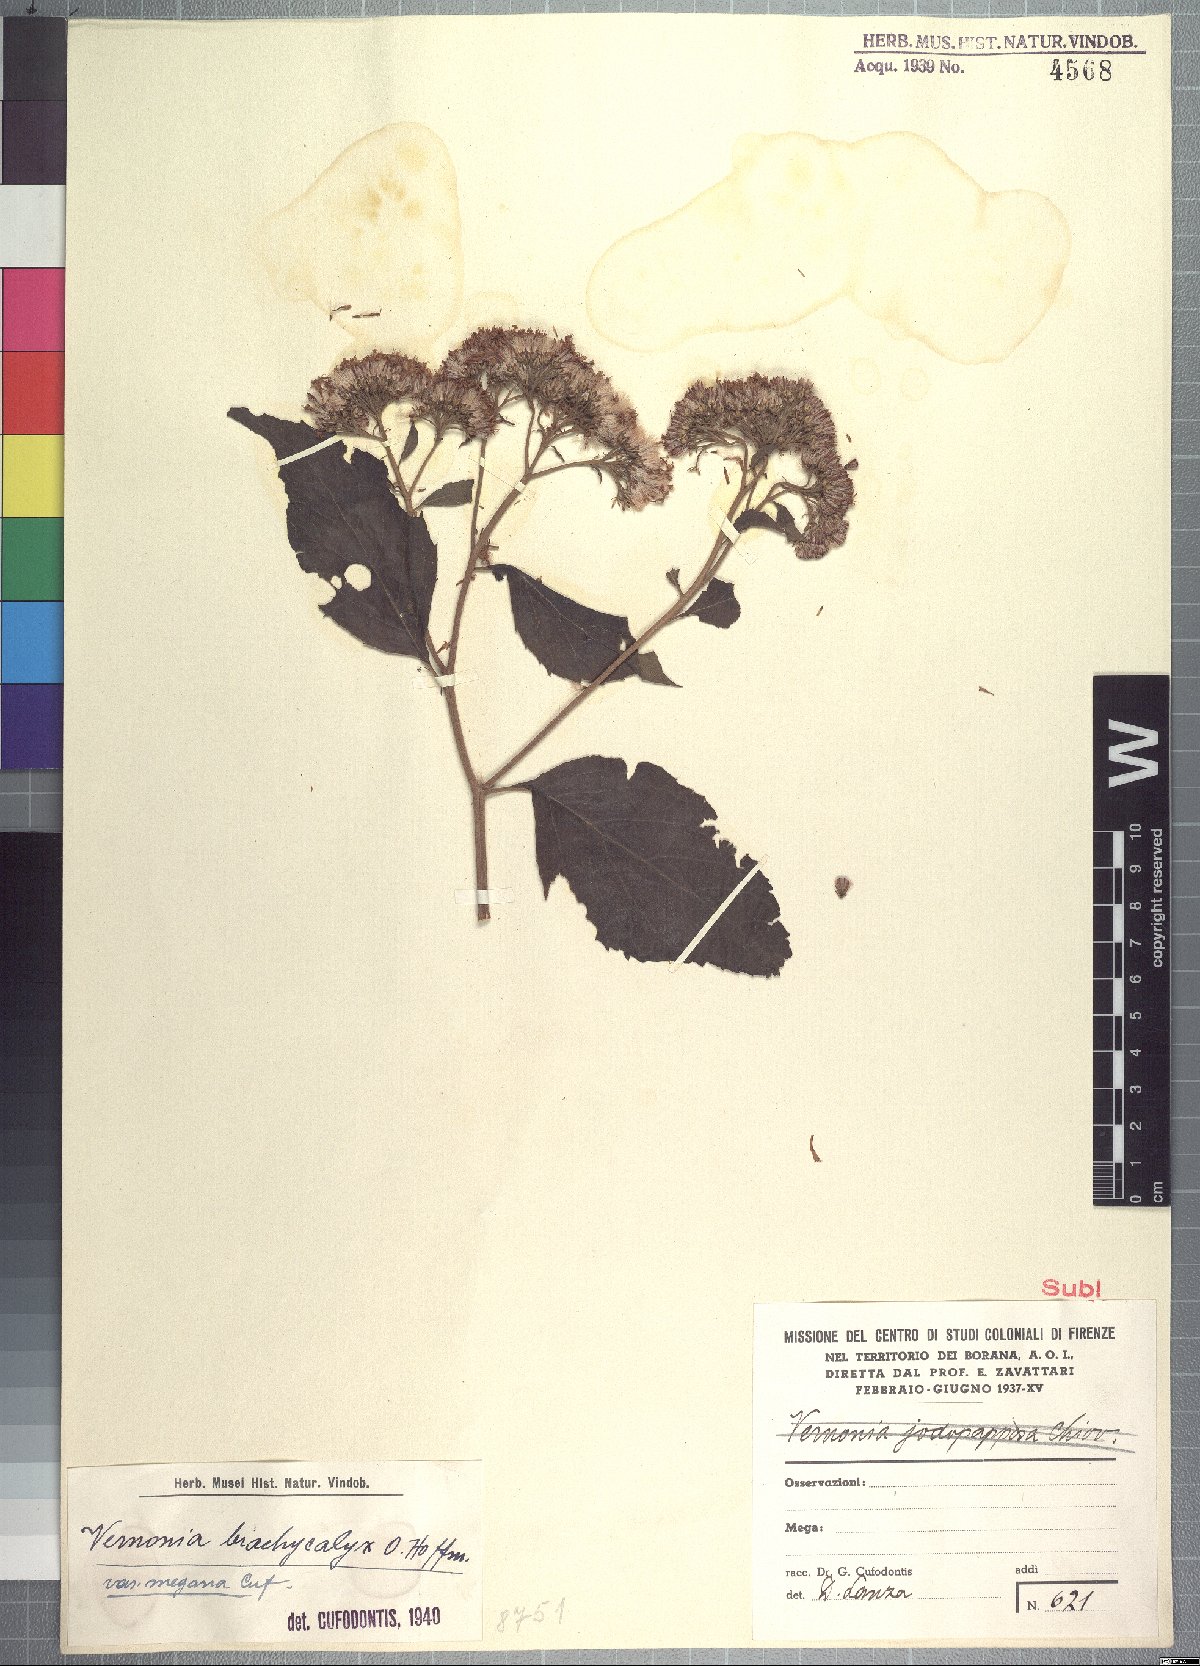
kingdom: Plantae
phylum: Tracheophyta
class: Magnoliopsida
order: Asterales
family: Asteraceae
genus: Hoffmannanthus
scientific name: Hoffmannanthus abbotianus
